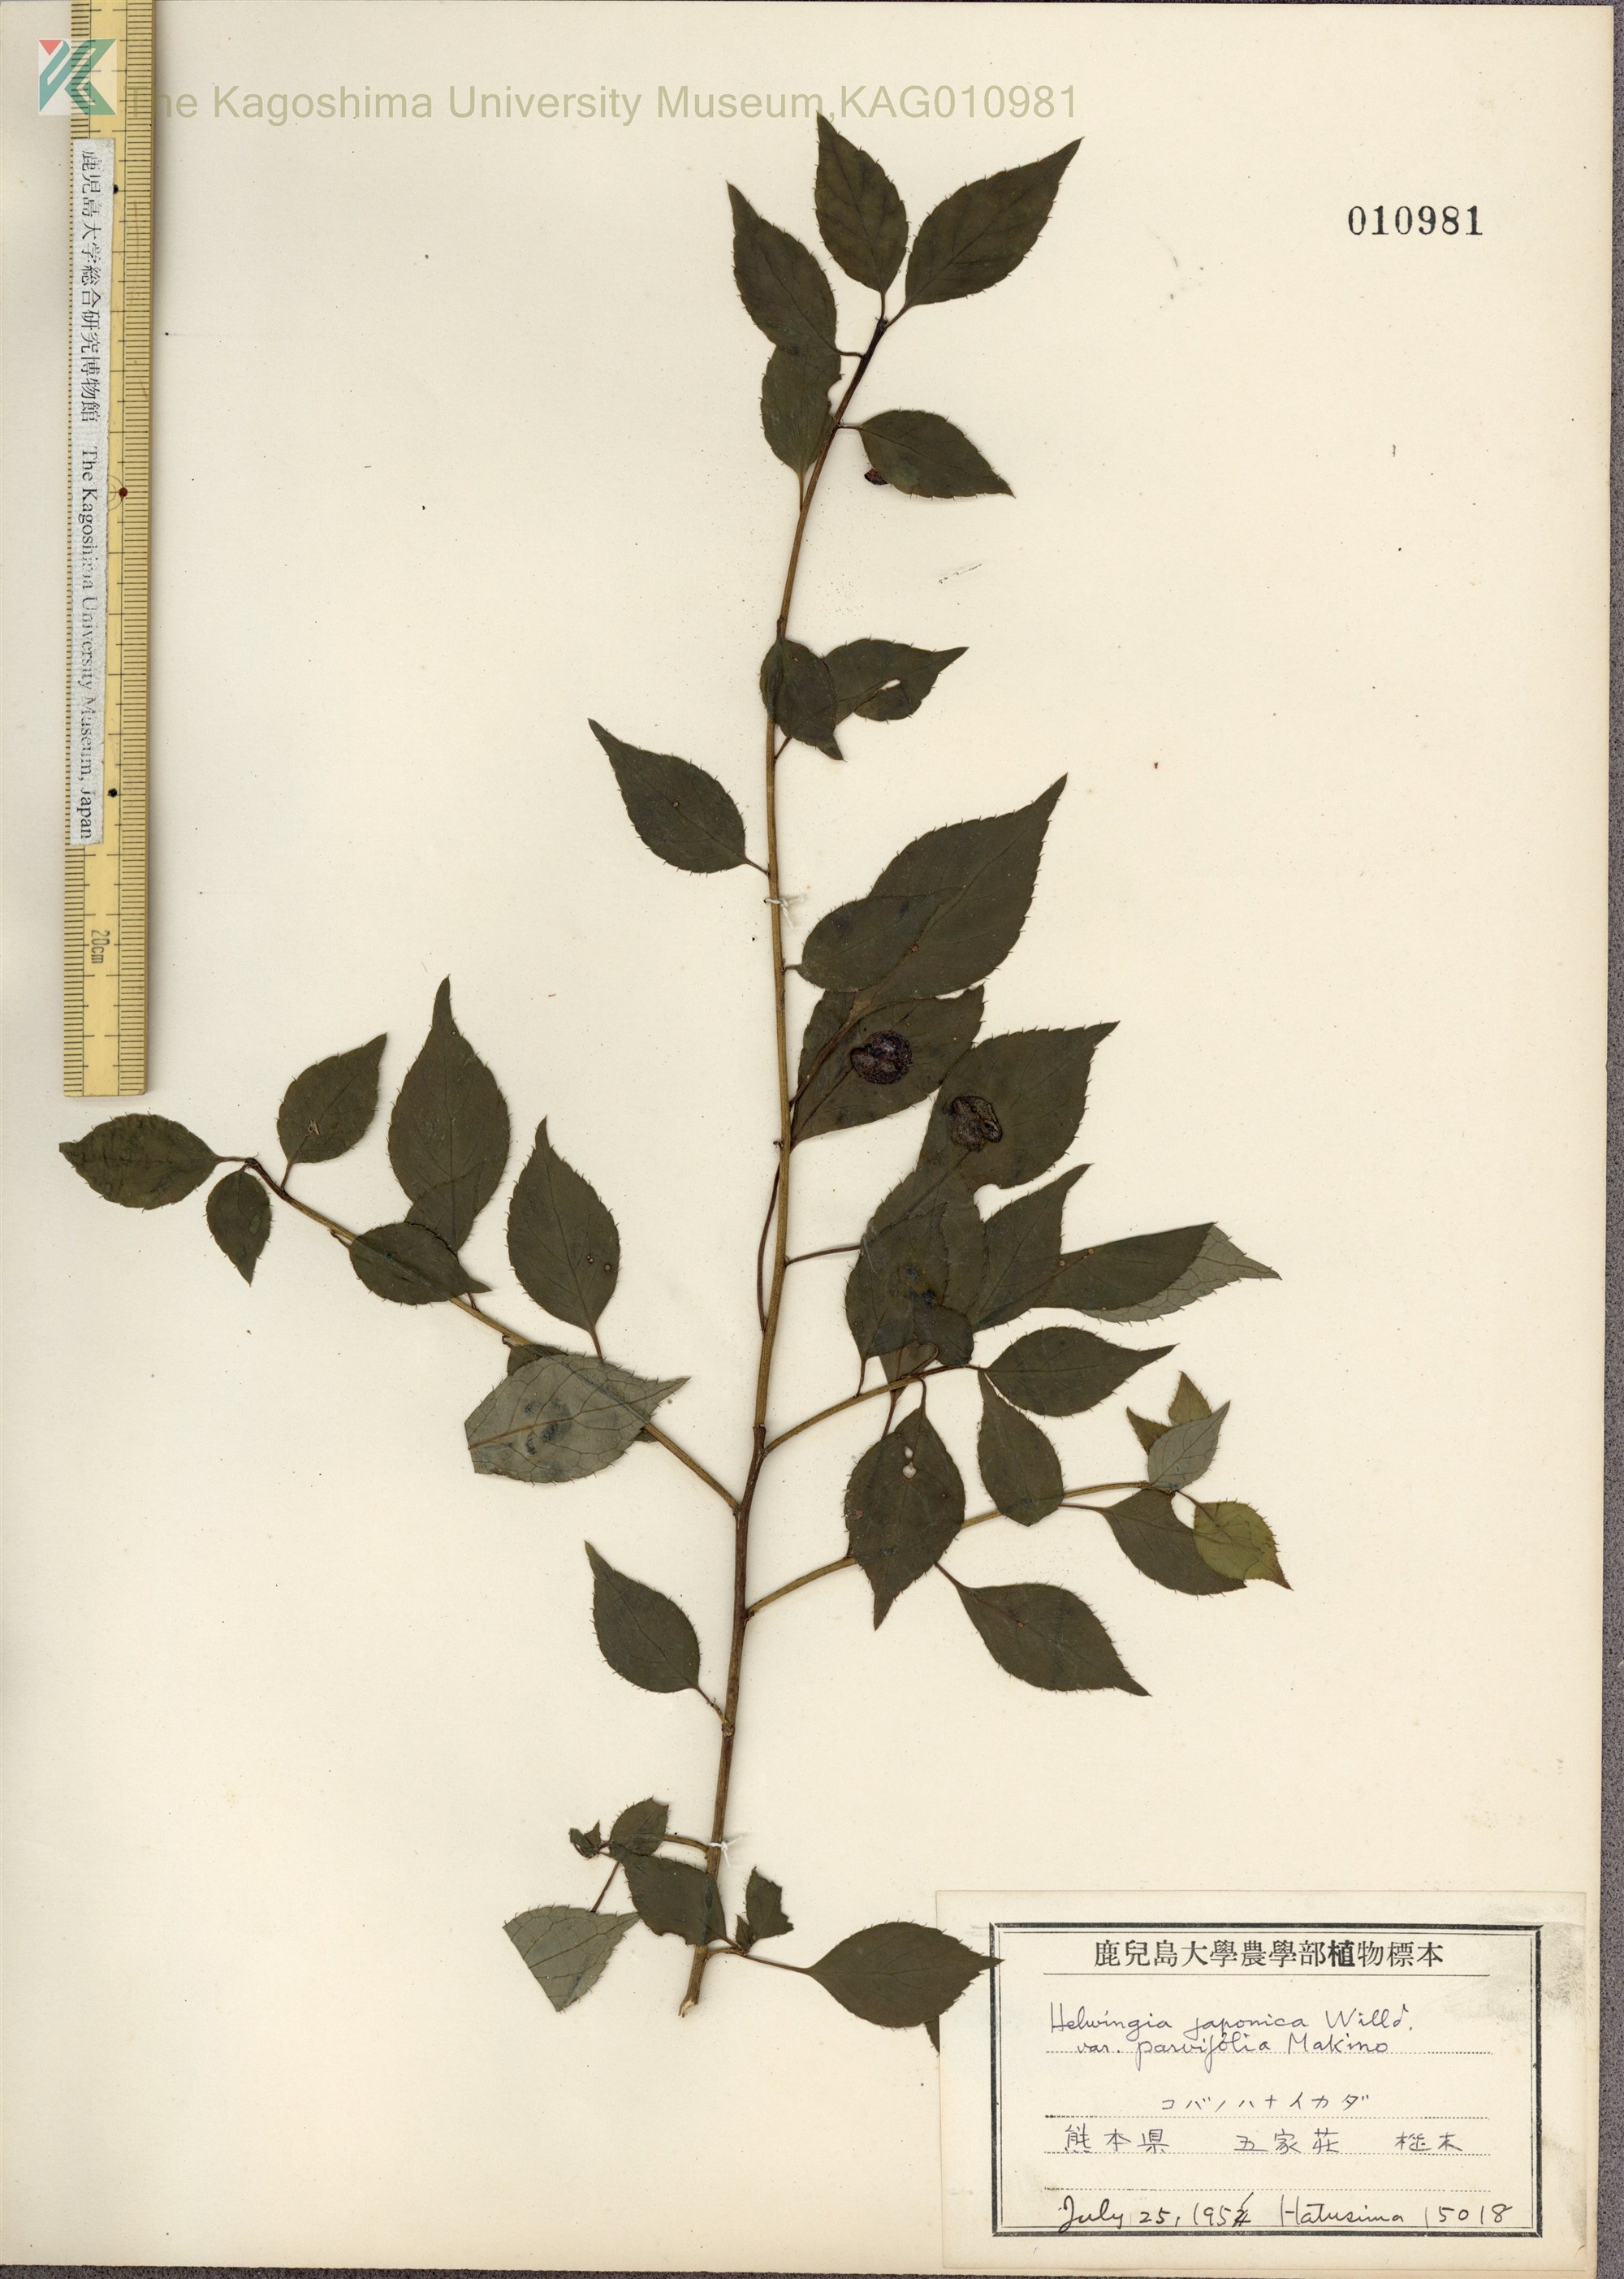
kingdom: Plantae
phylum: Tracheophyta
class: Magnoliopsida
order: Aquifoliales
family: Helwingiaceae
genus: Helwingia
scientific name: Helwingia japonica
